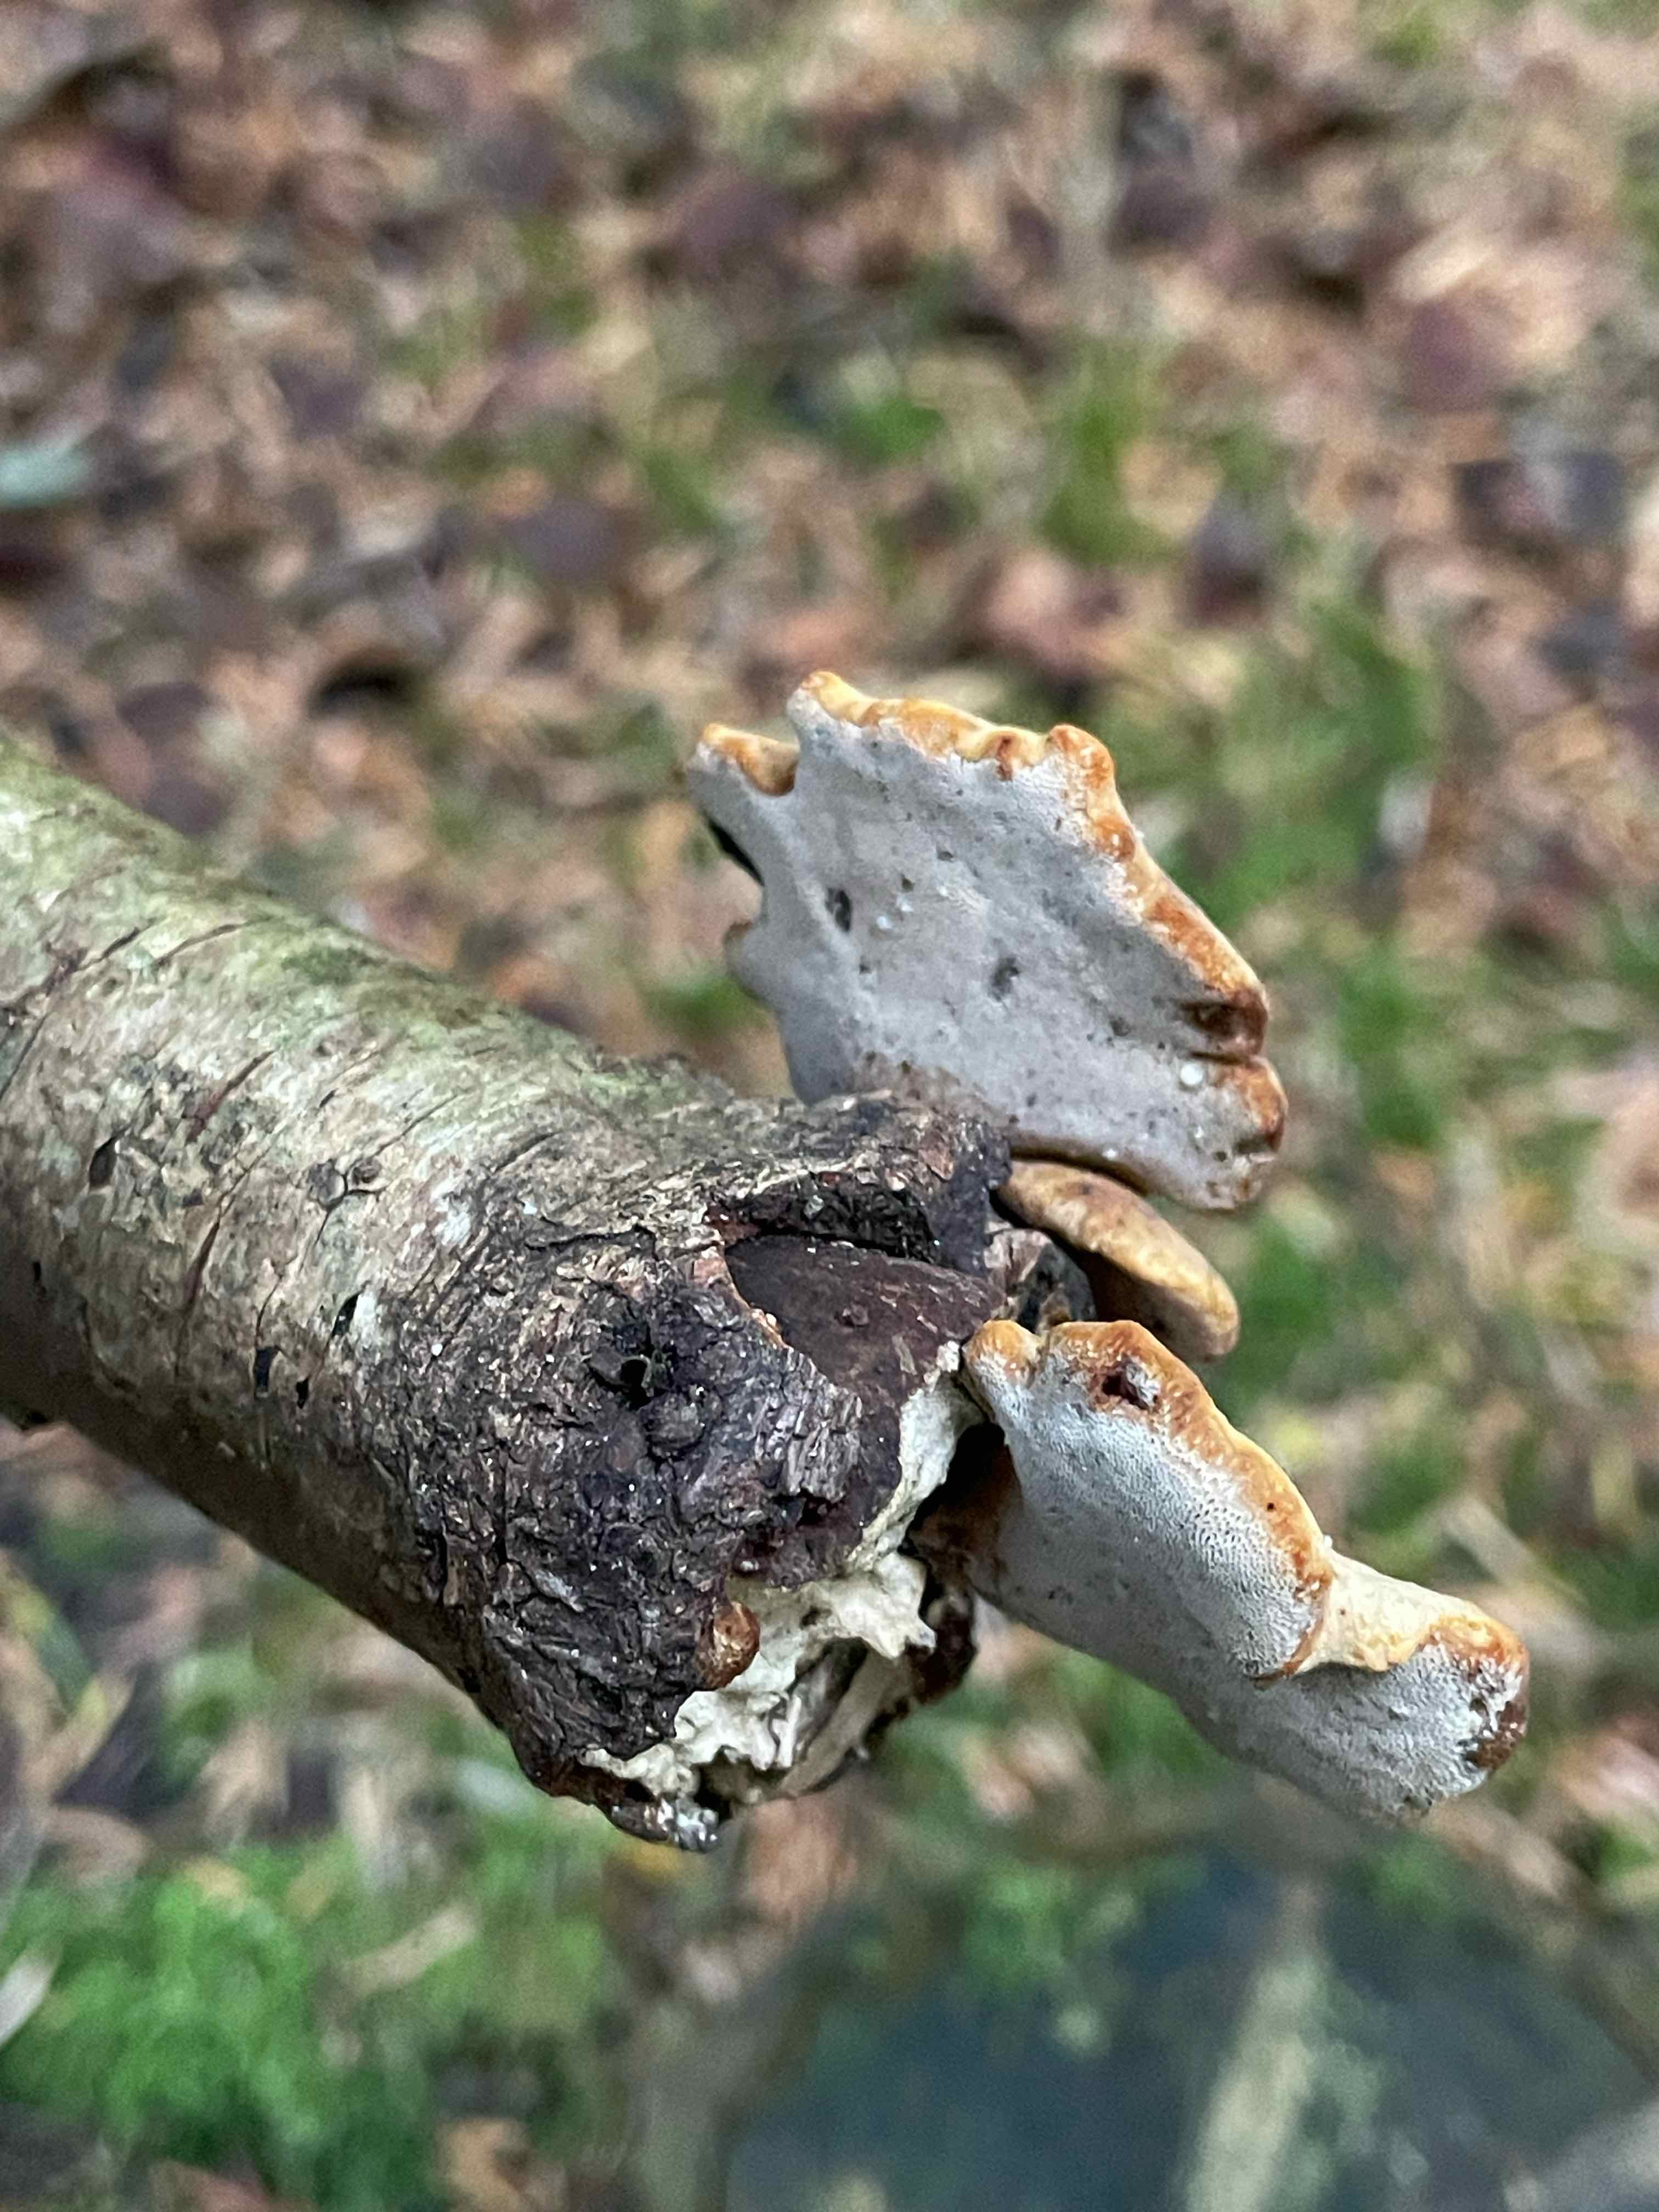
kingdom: Fungi
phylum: Basidiomycota
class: Agaricomycetes
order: Polyporales
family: Polyporaceae
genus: Cerioporus
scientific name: Cerioporus varius
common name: foranderlig stilkporesvamp
